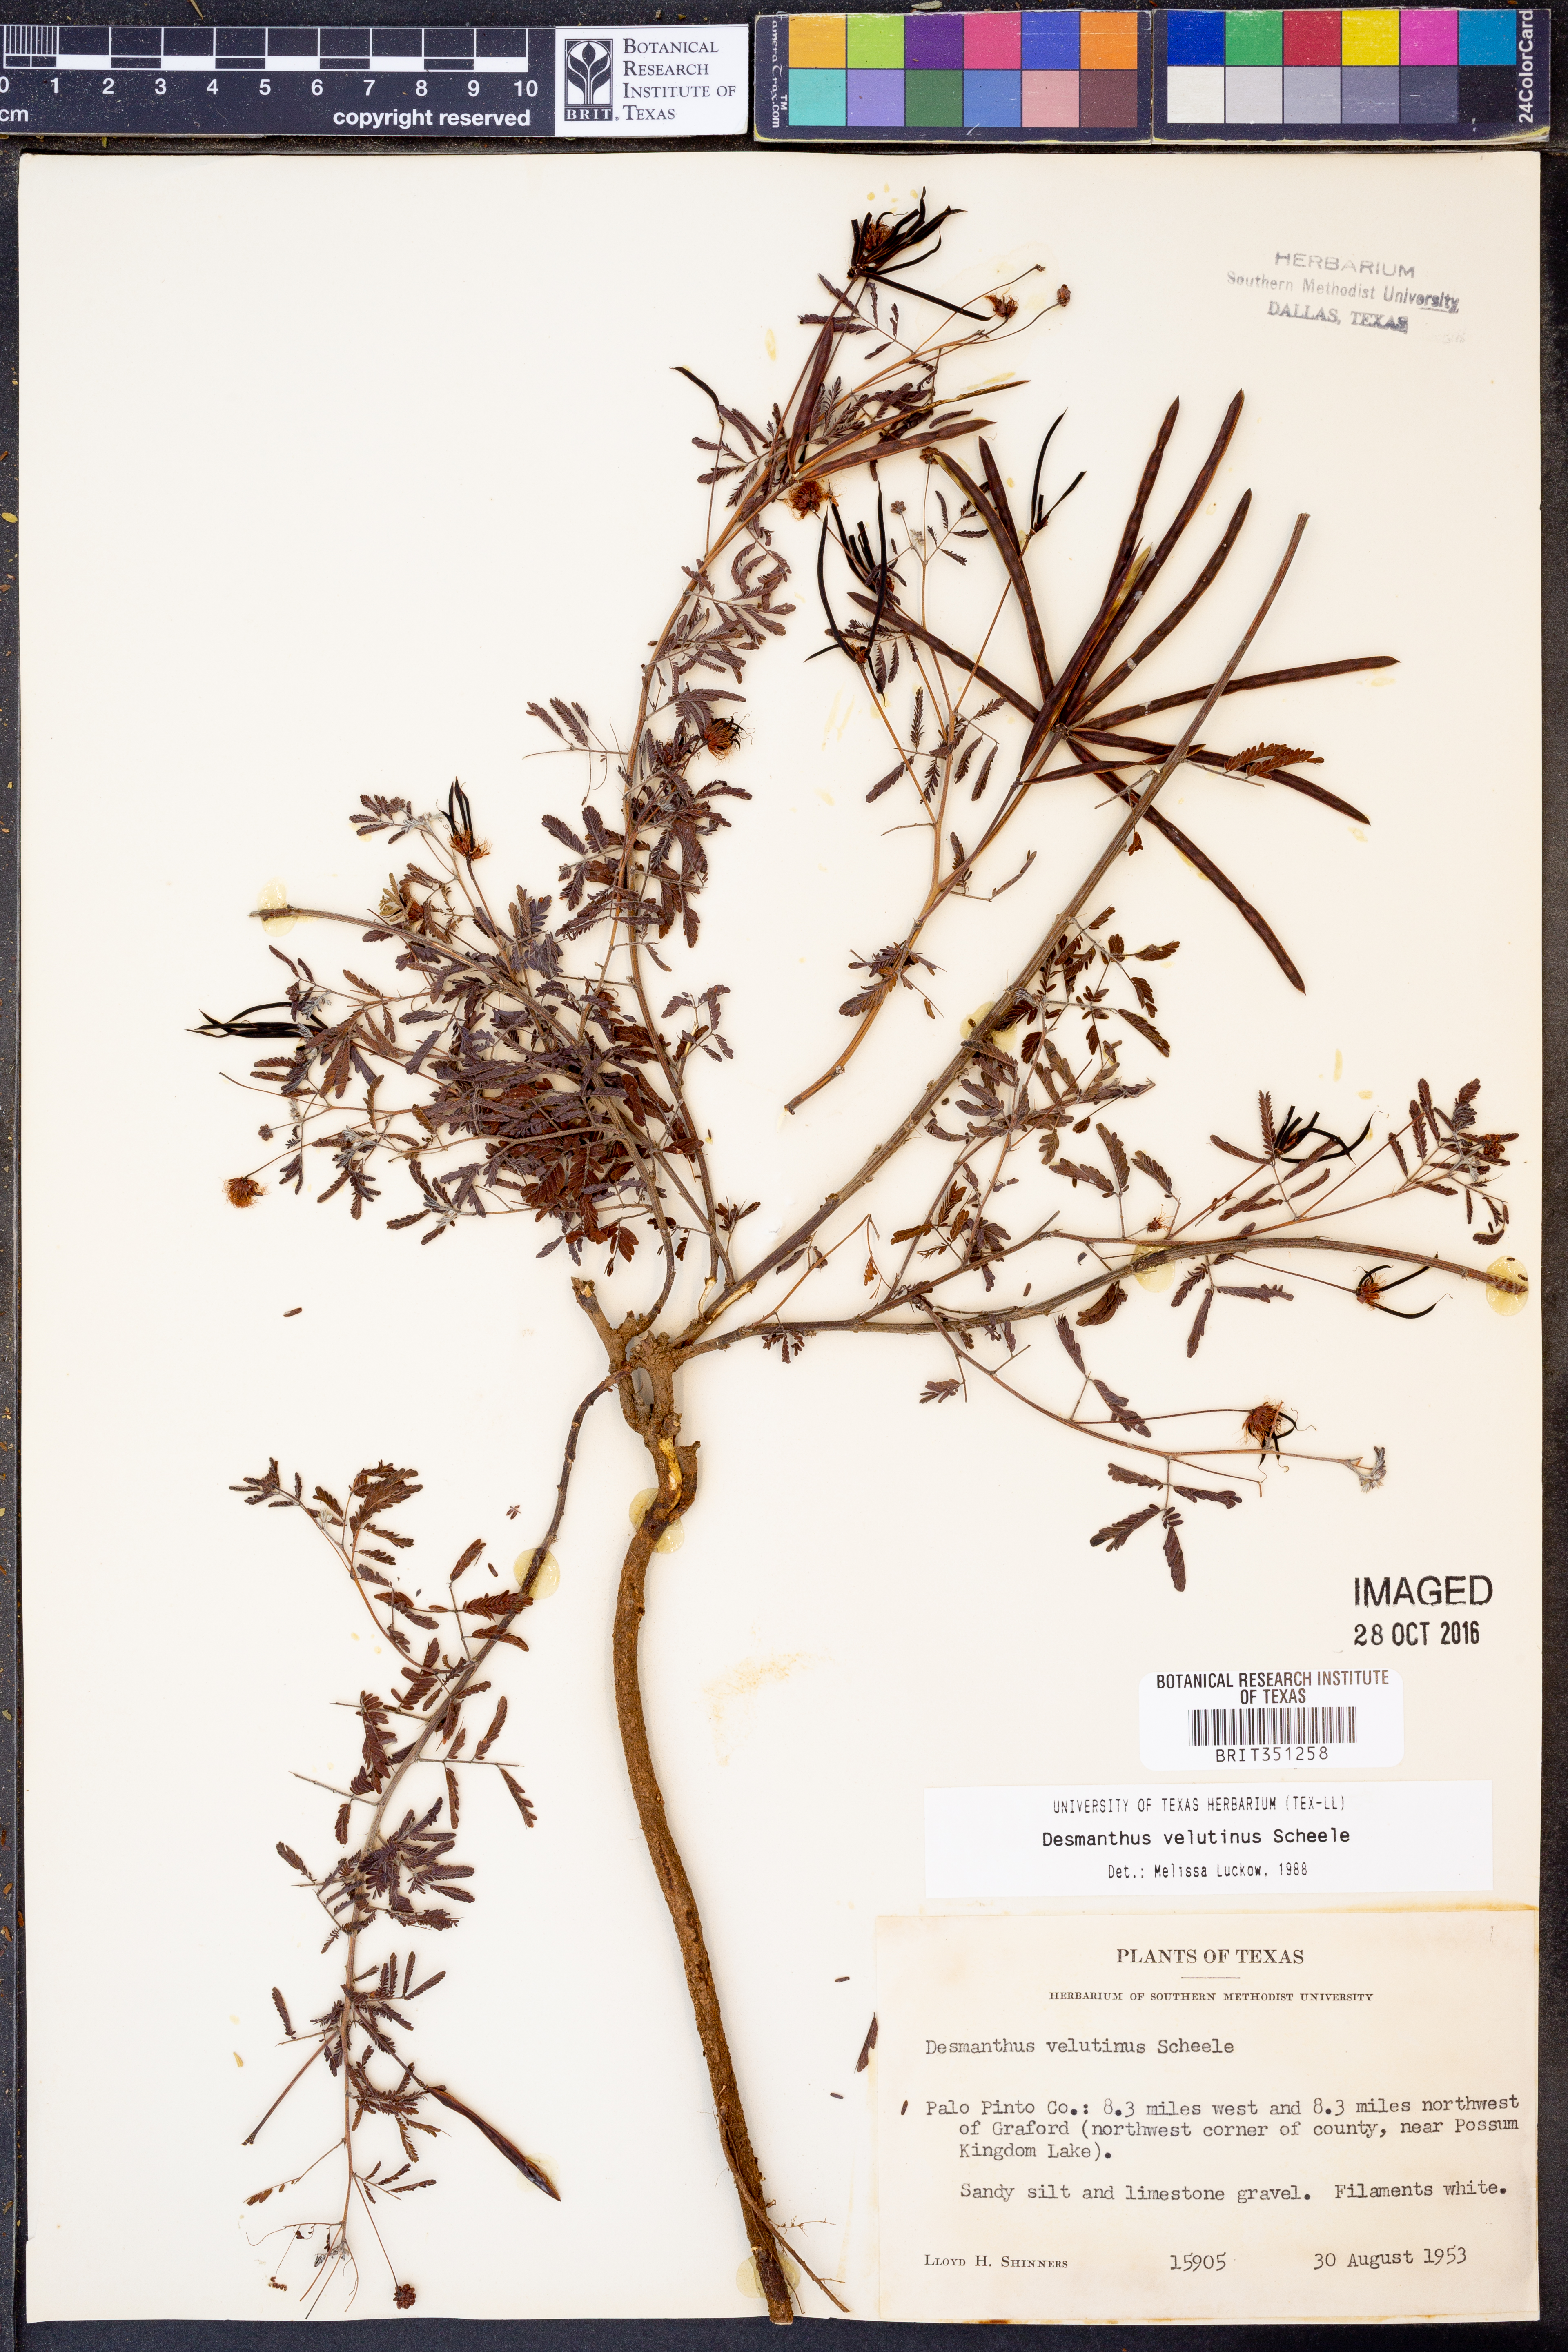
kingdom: Plantae
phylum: Tracheophyta
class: Magnoliopsida
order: Fabales
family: Fabaceae
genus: Desmanthus
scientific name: Desmanthus velutinus
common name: Velvet bundle-flower
